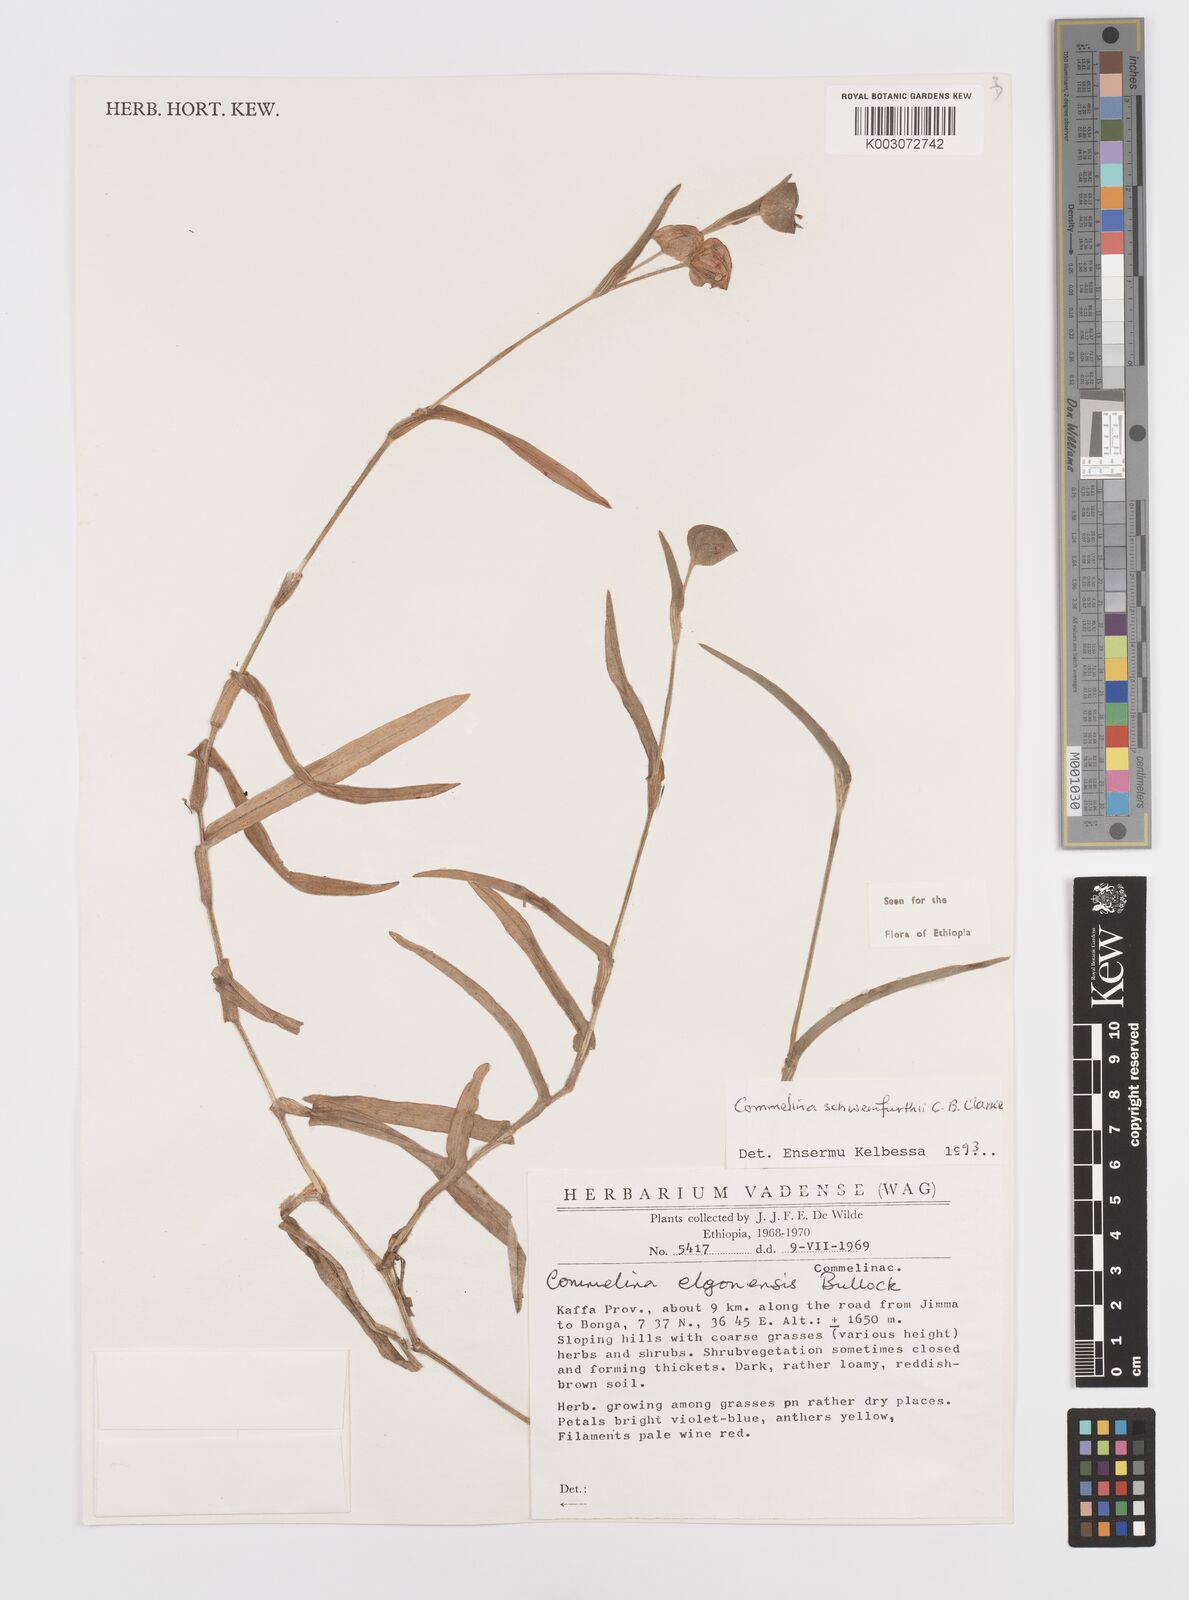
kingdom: Plantae
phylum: Tracheophyta
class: Liliopsida
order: Commelinales
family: Commelinaceae
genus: Commelina
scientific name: Commelina schweinfurthii
